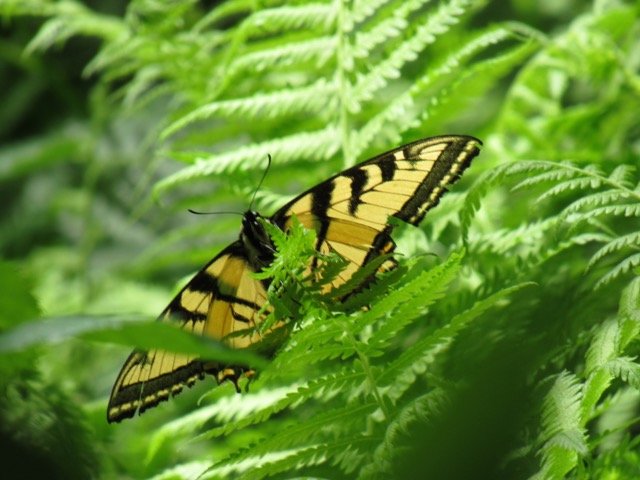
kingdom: Animalia
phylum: Arthropoda
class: Insecta
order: Lepidoptera
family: Papilionidae
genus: Pterourus
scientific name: Pterourus
